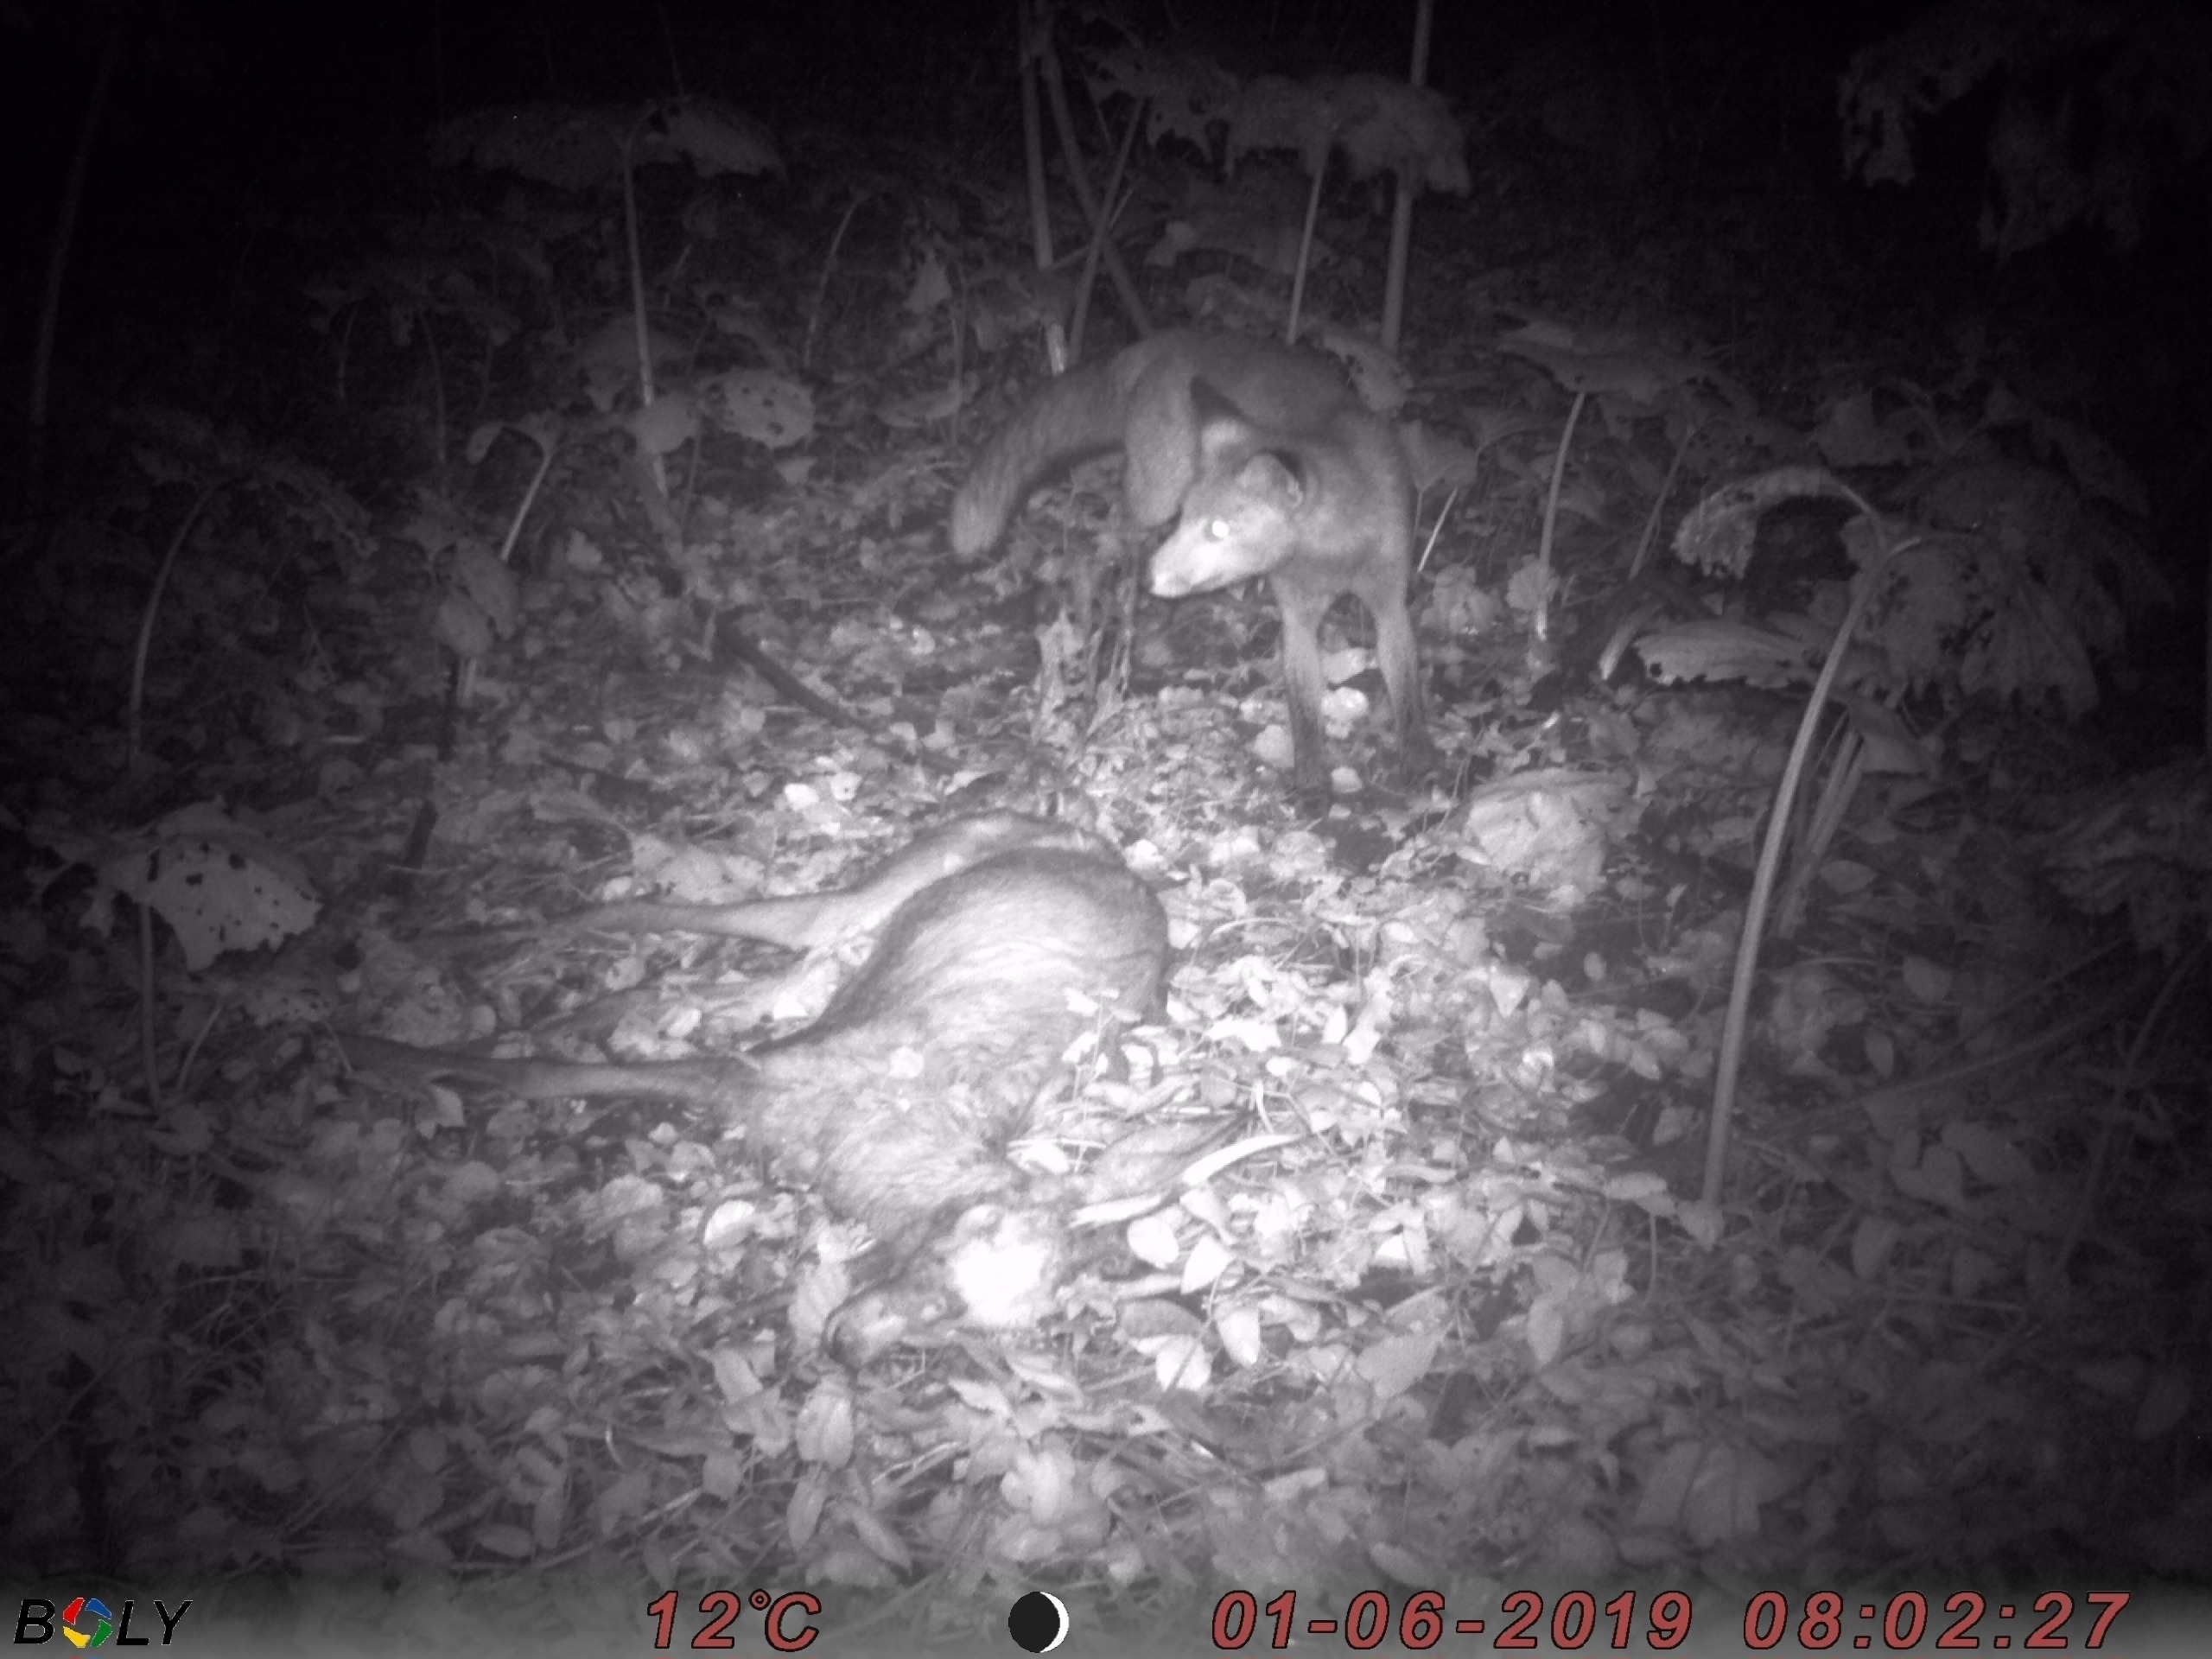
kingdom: Animalia
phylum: Chordata
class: Mammalia
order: Carnivora
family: Canidae
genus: Vulpes
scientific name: Vulpes vulpes
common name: Ræv
